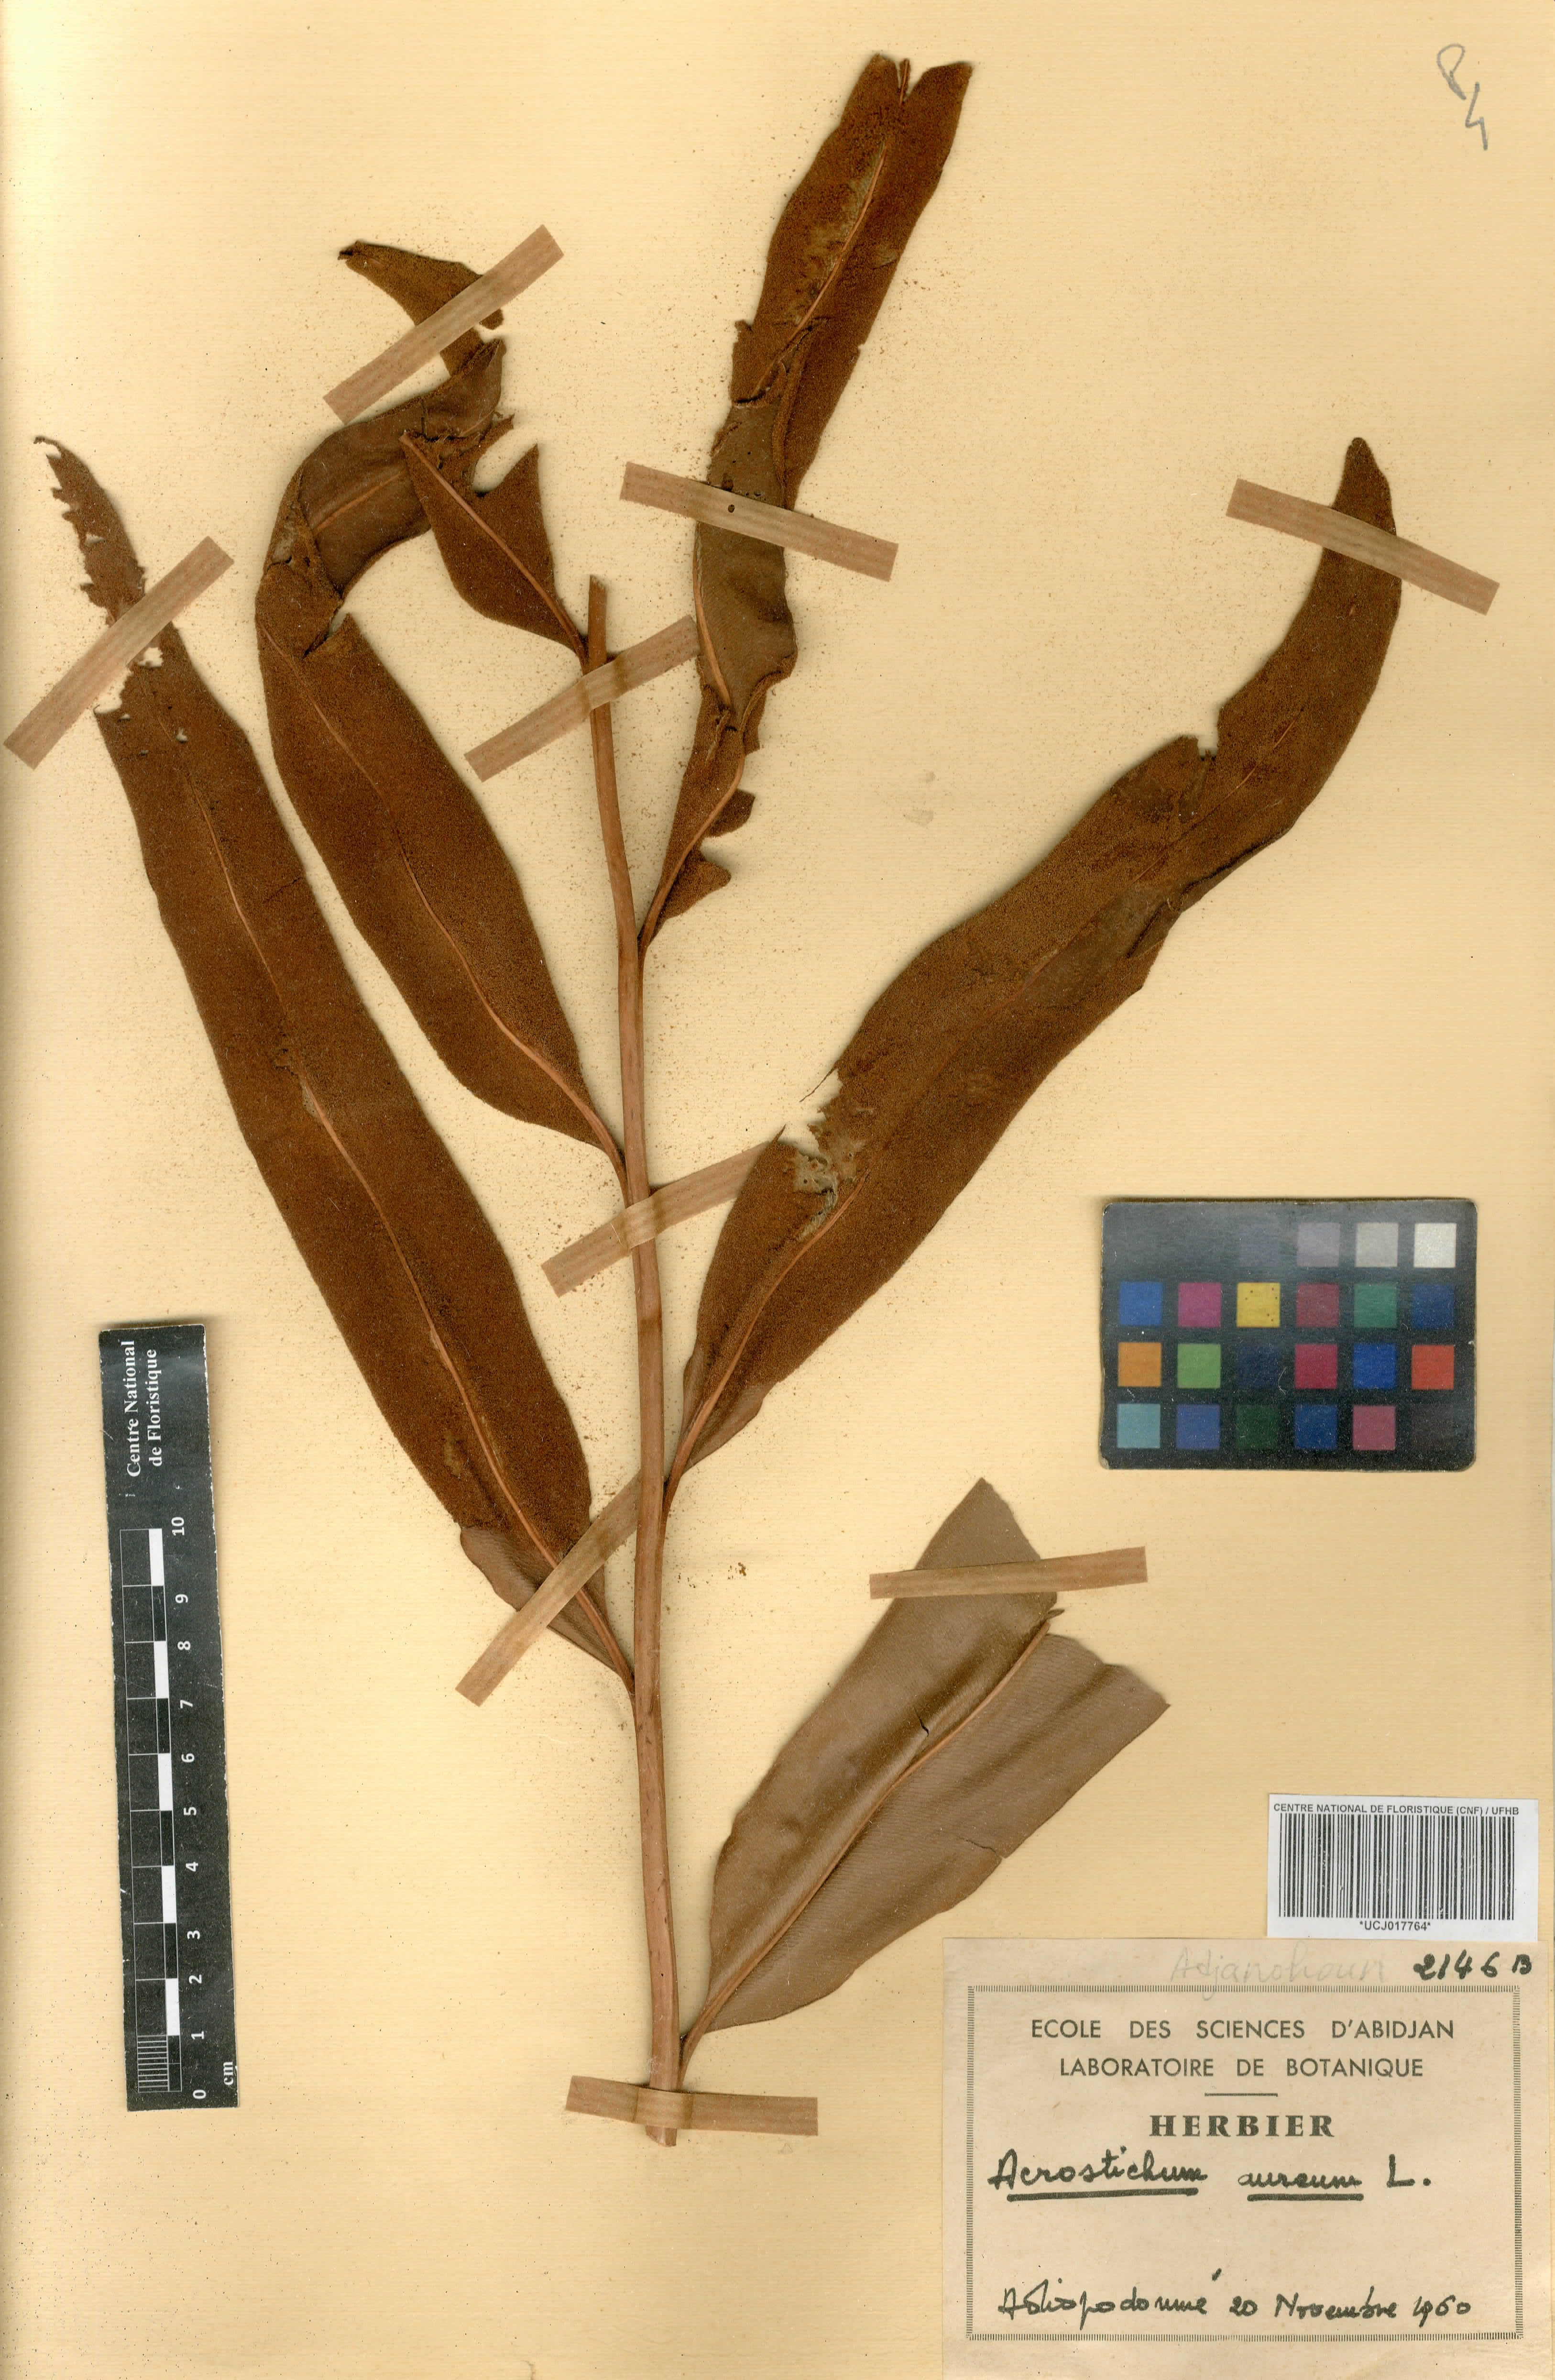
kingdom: Plantae
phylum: Tracheophyta
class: Polypodiopsida
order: Polypodiales
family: Pteridaceae
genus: Acrostichum
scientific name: Acrostichum aureum
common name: Leather fern
